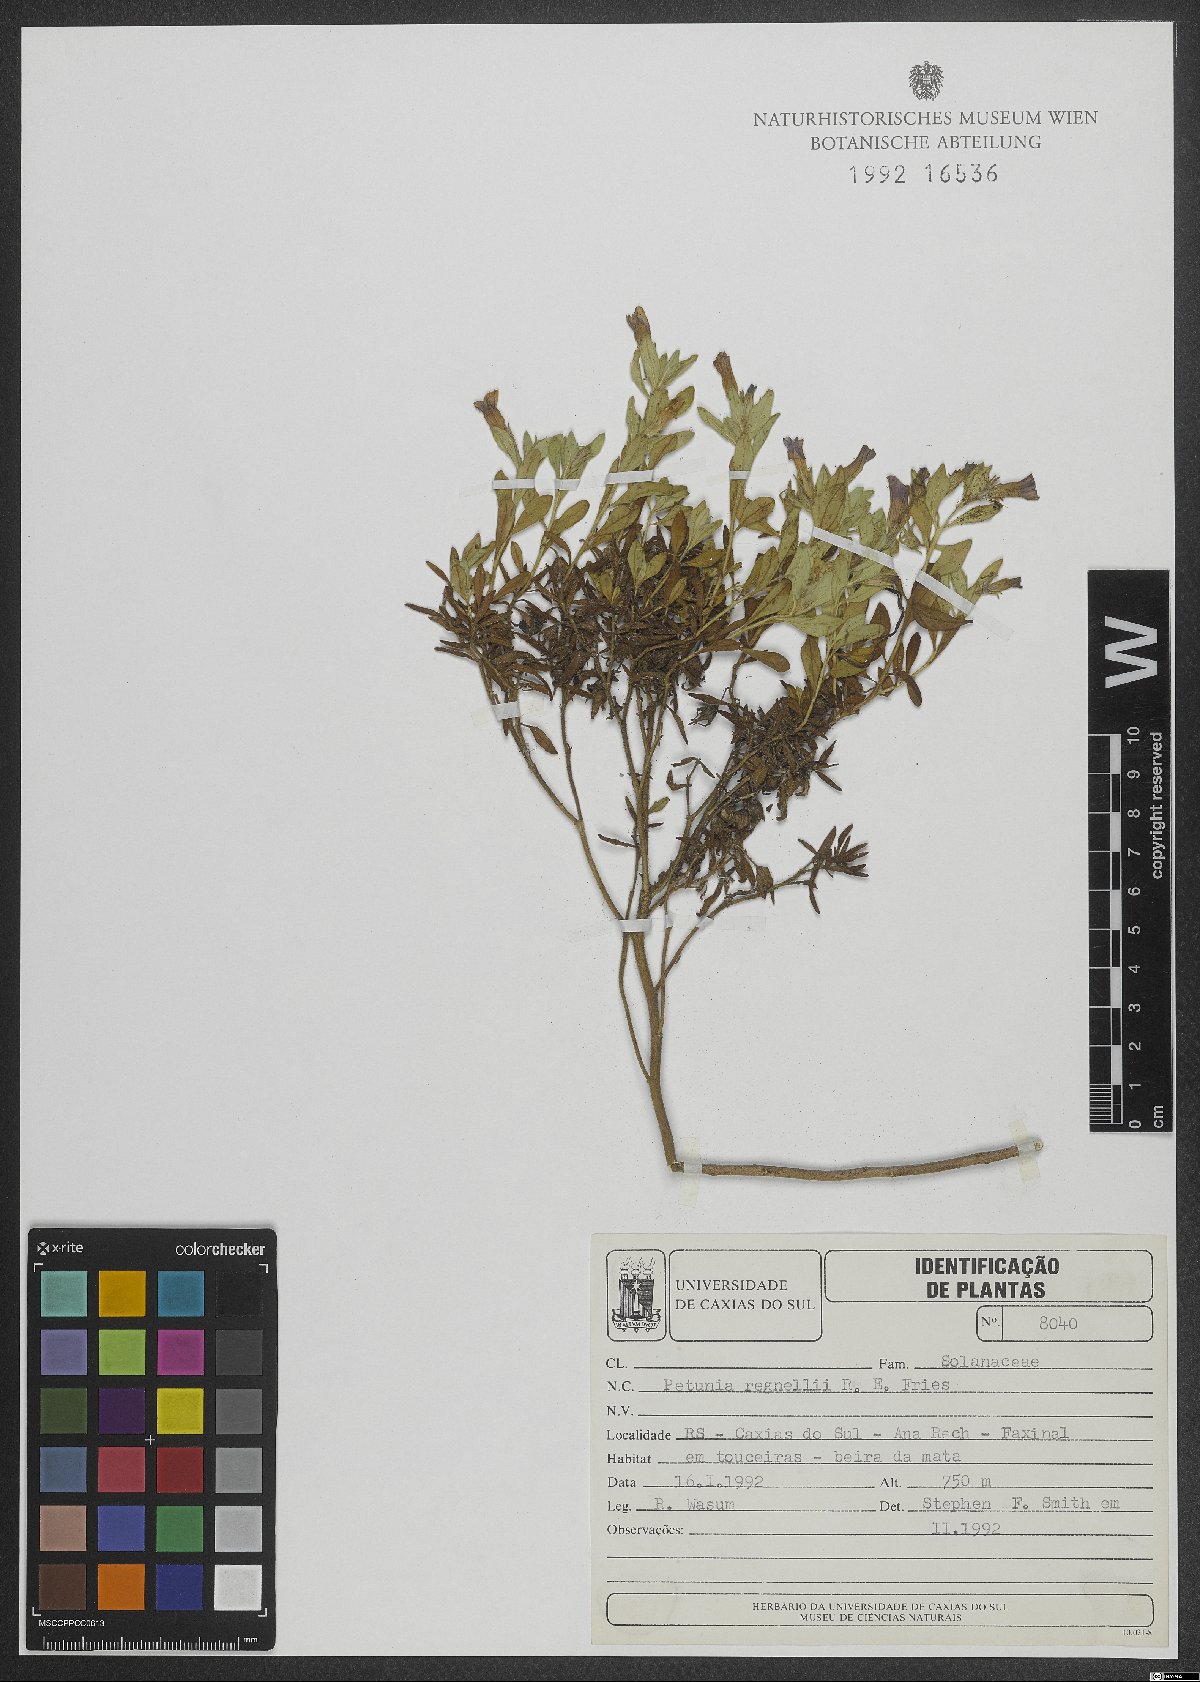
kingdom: Plantae
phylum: Tracheophyta
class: Magnoliopsida
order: Solanales
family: Solanaceae
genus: Calibrachoa
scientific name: Calibrachoa linoides
